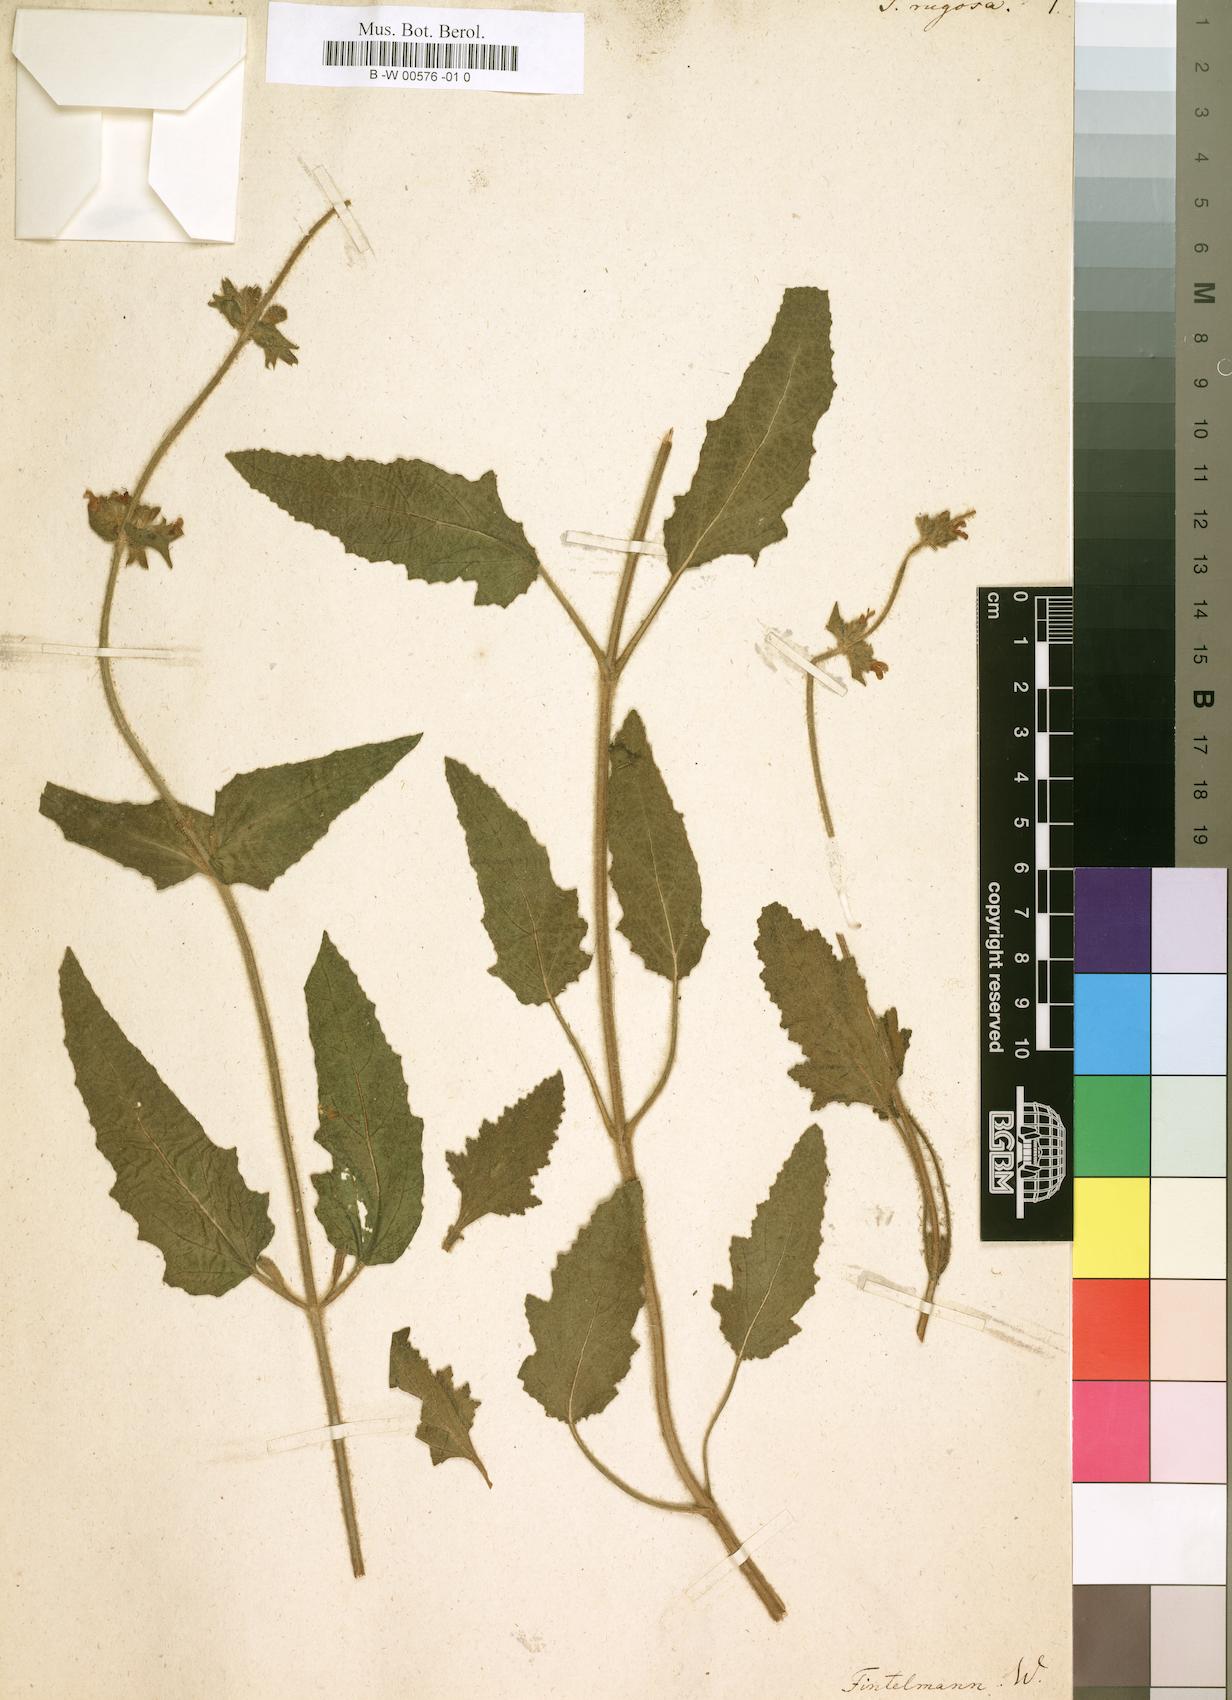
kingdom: Plantae
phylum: Tracheophyta
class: Magnoliopsida
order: Lamiales
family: Lamiaceae
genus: Salvia
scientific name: Salvia disermas
